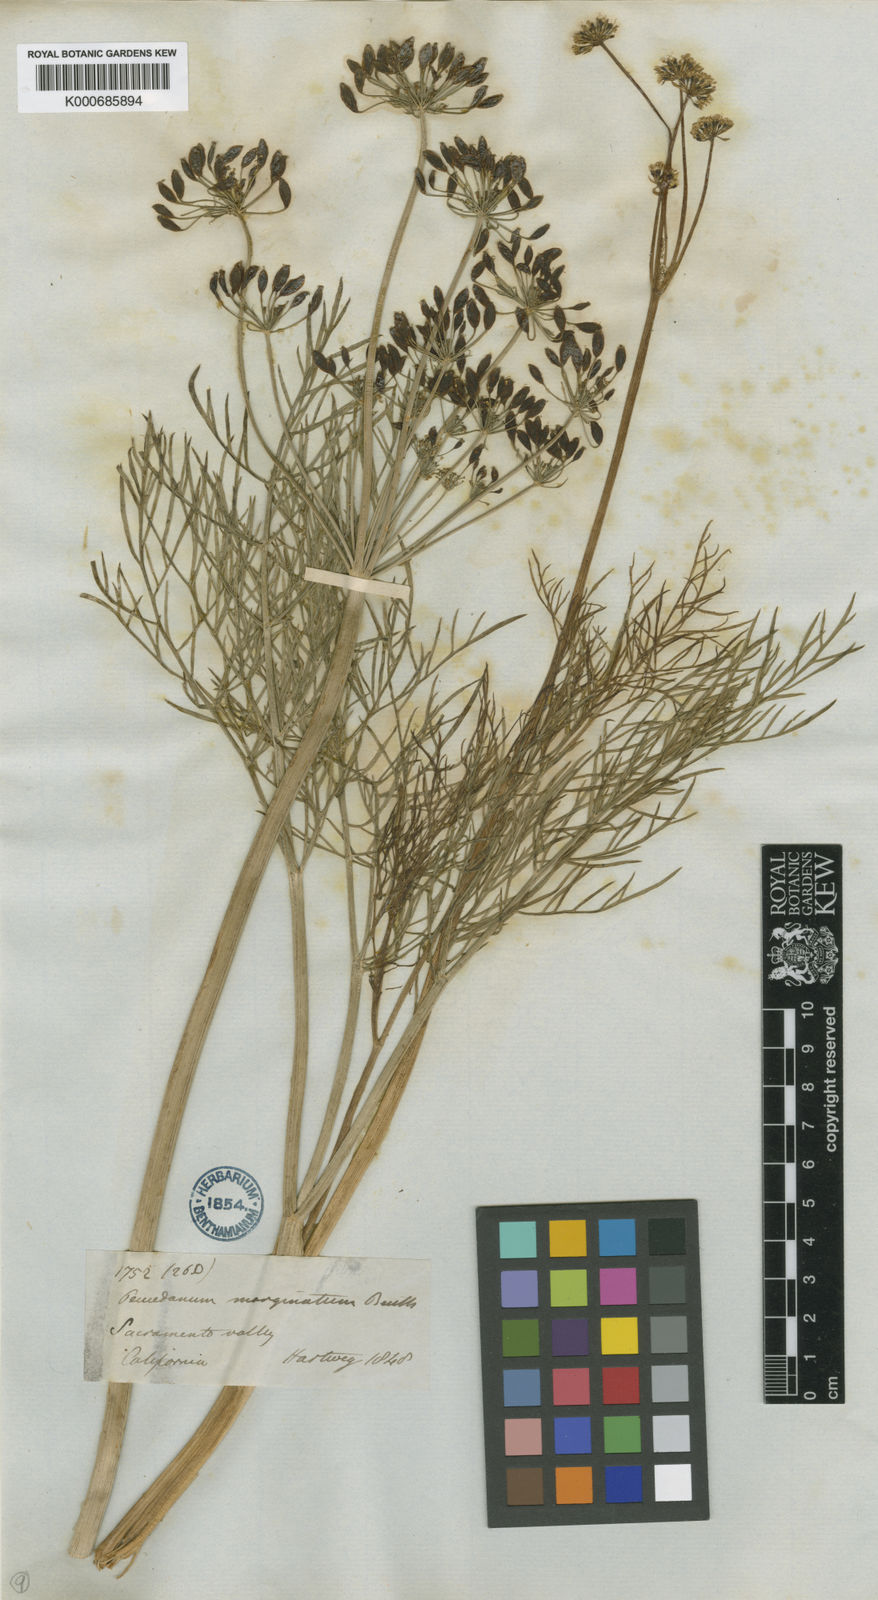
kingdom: Plantae
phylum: Tracheophyta
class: Magnoliopsida
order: Apiales
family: Apiaceae
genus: Lomatium
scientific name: Lomatium marginatum
